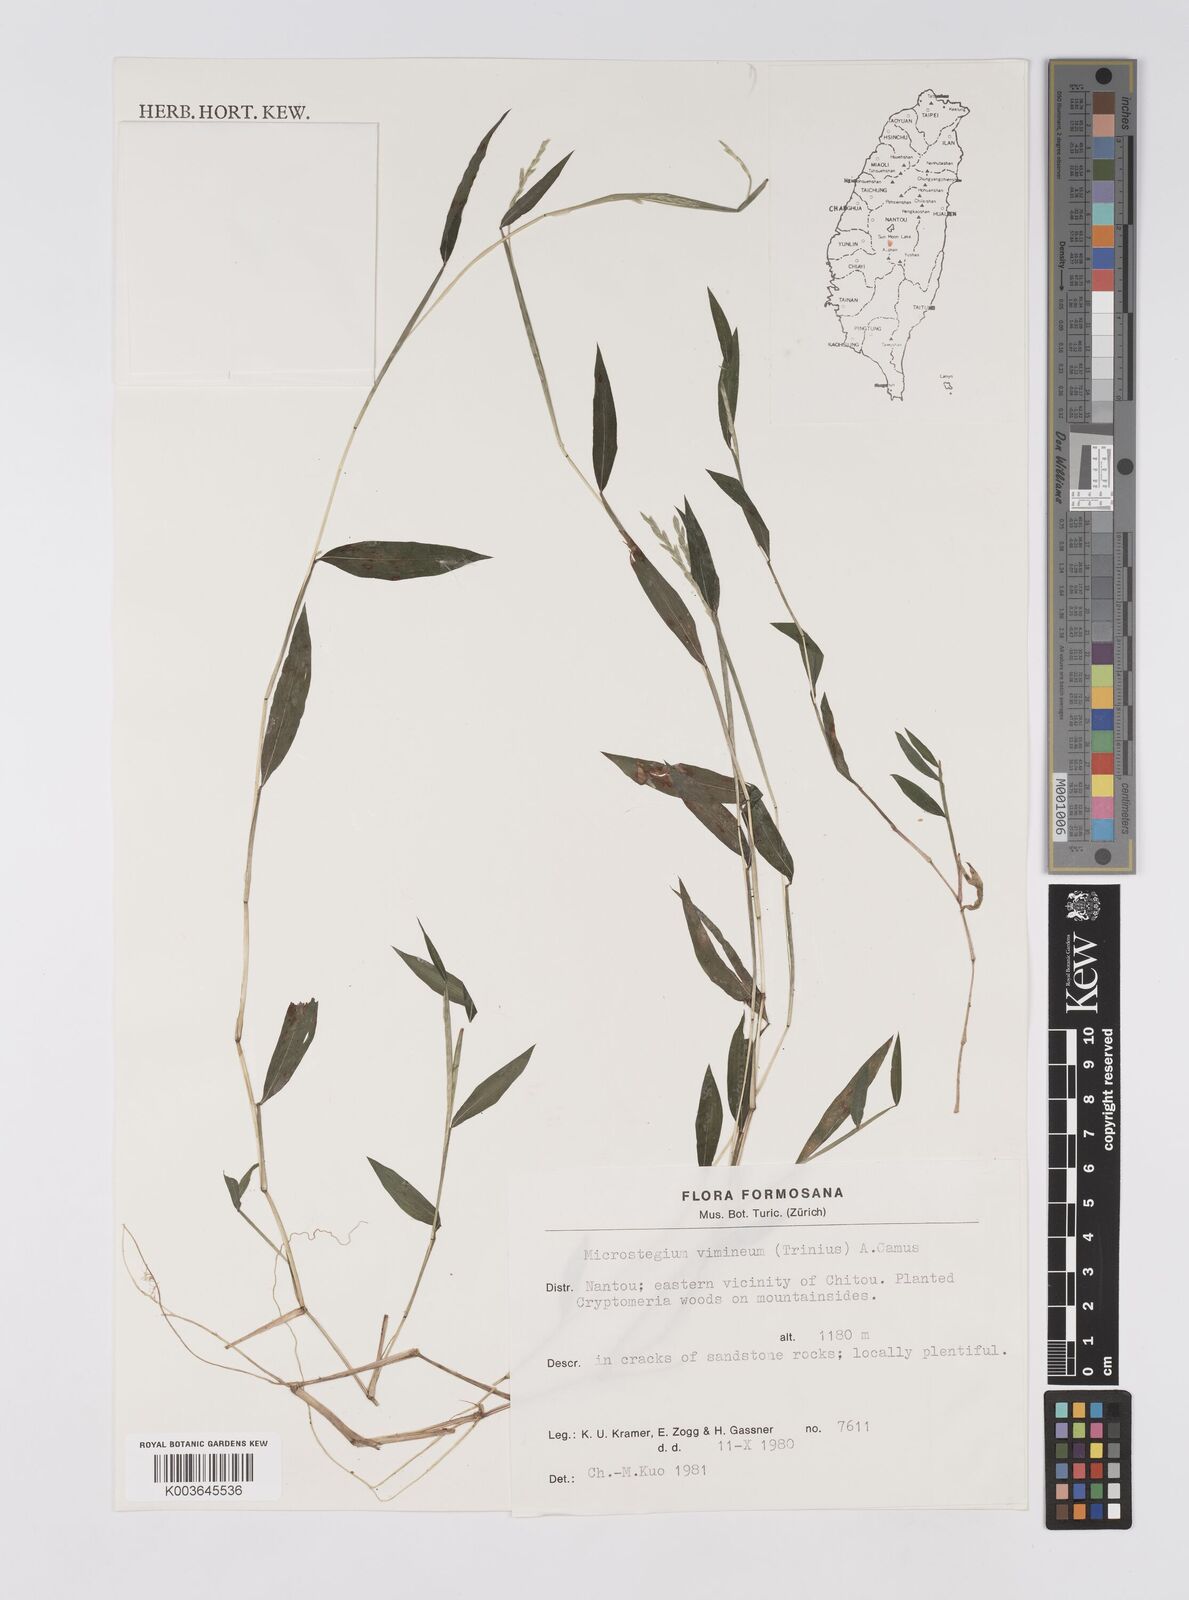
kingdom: Plantae
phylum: Tracheophyta
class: Liliopsida
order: Poales
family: Poaceae
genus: Microstegium
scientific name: Microstegium vimineum
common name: Japanese stiltgrass
